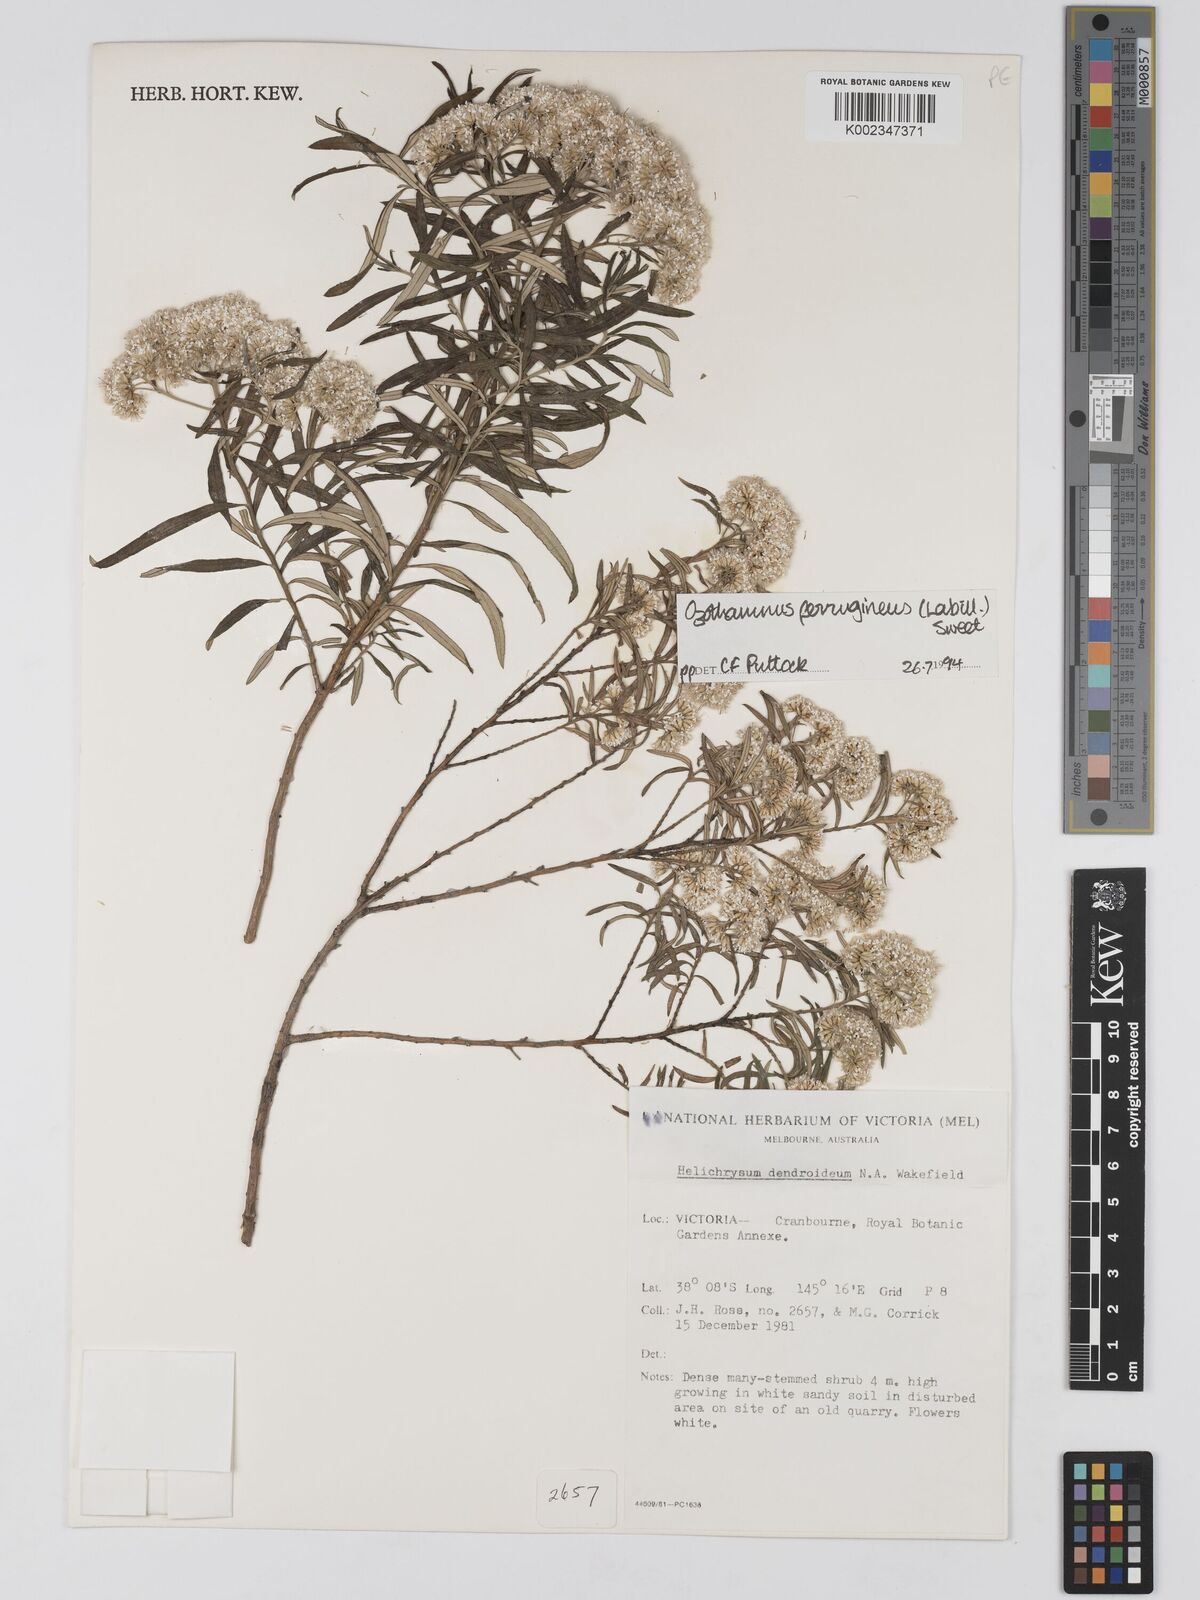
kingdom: Plantae
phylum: Tracheophyta
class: Magnoliopsida
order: Asterales
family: Asteraceae
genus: Ozothamnus
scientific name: Ozothamnus ferrugineus
